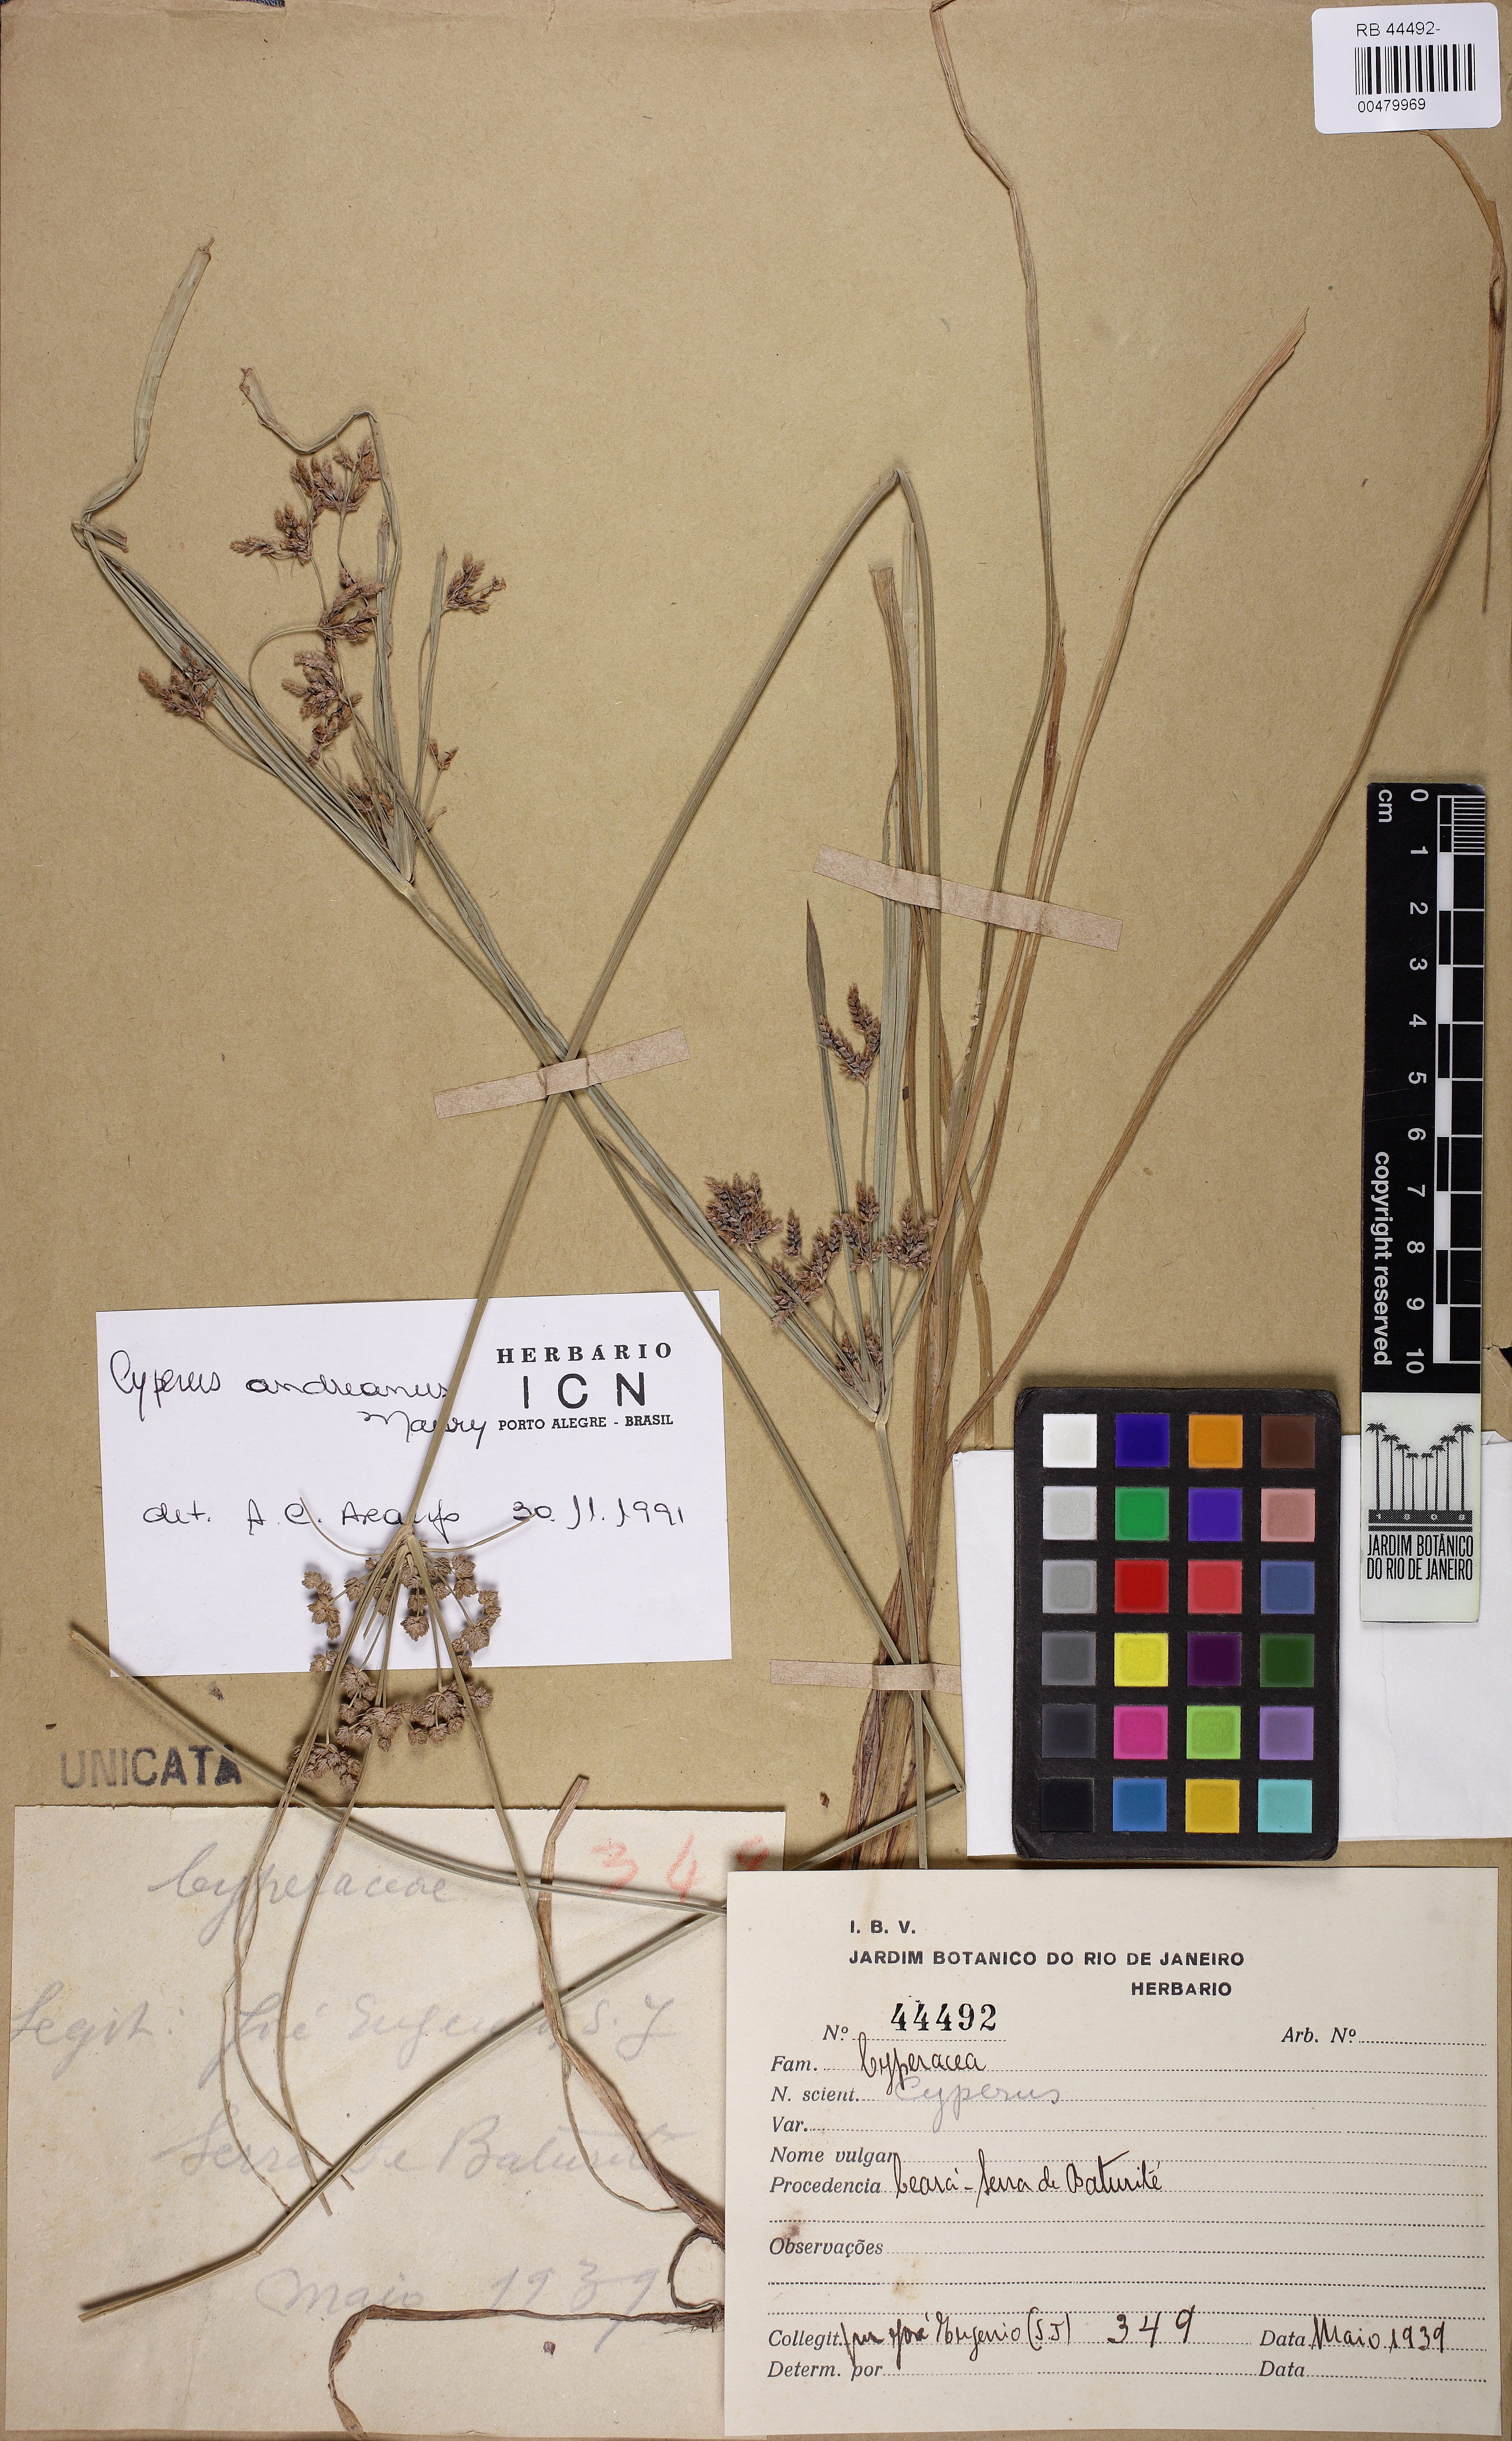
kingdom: Plantae
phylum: Tracheophyta
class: Liliopsida
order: Poales
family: Cyperaceae
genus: Cyperus
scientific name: Cyperus laxus
